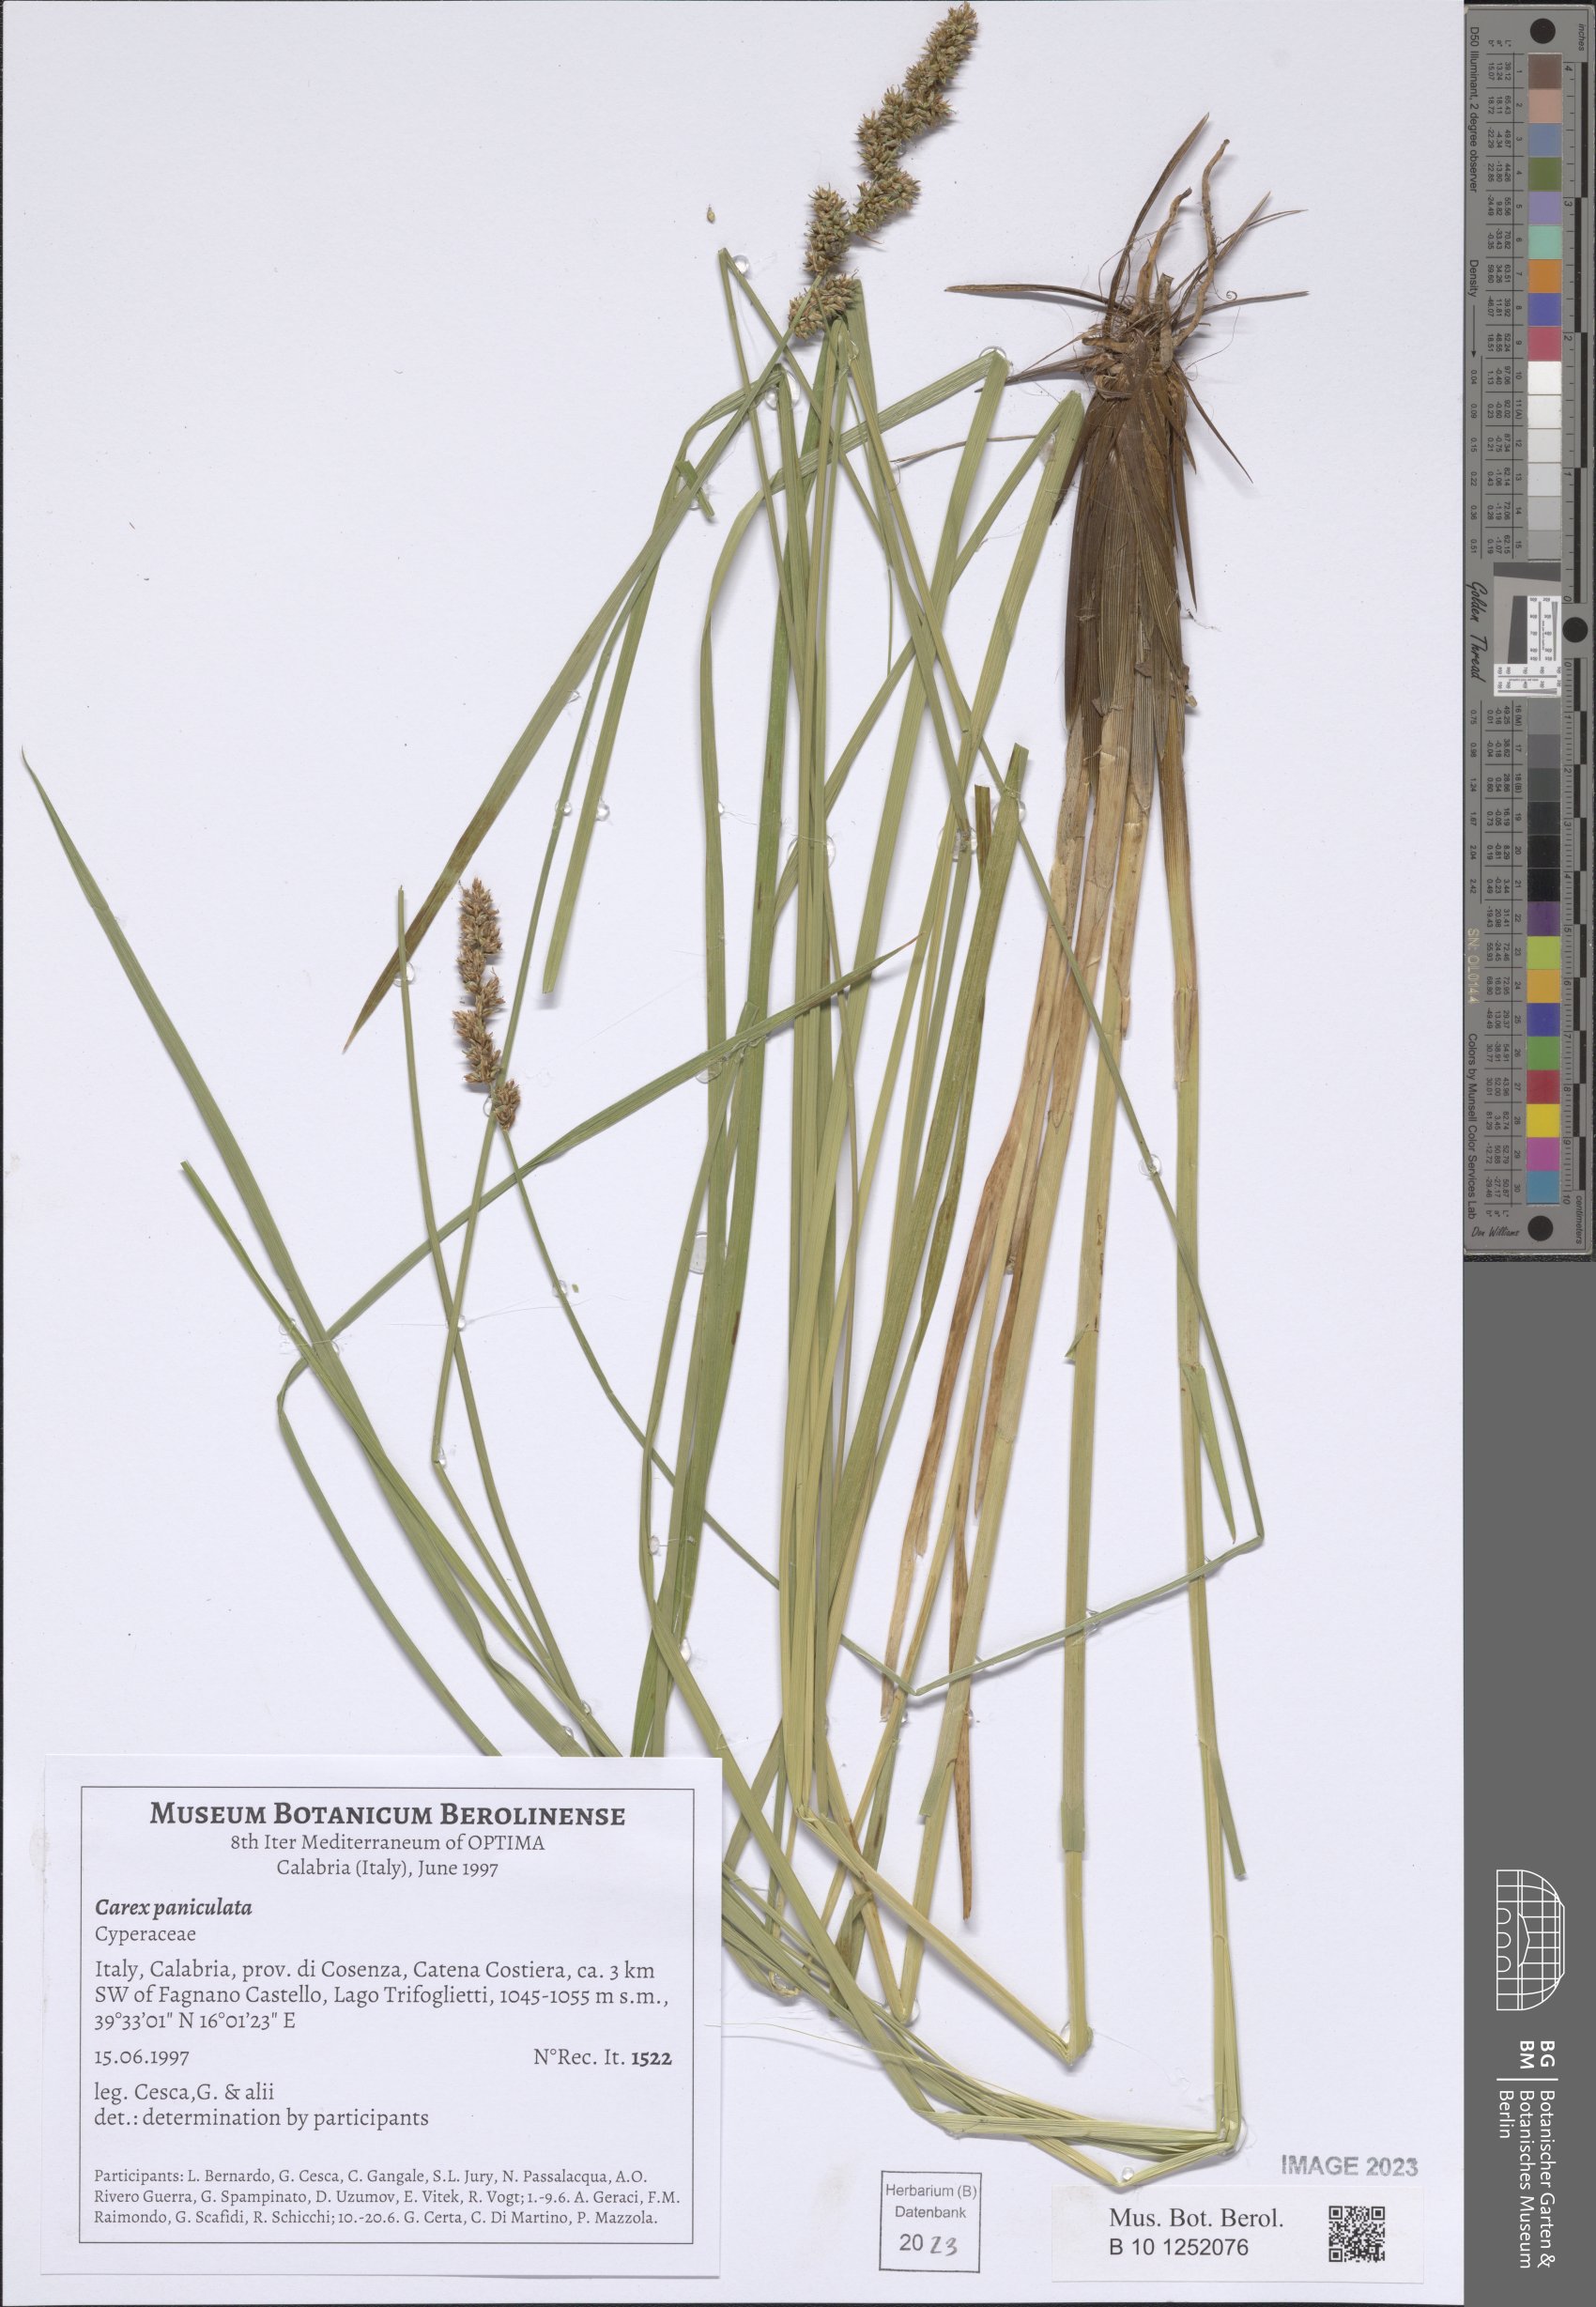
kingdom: Plantae
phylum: Tracheophyta
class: Liliopsida
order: Poales
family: Cyperaceae
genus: Carex
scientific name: Carex paniculata
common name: Greater tussock-sedge
